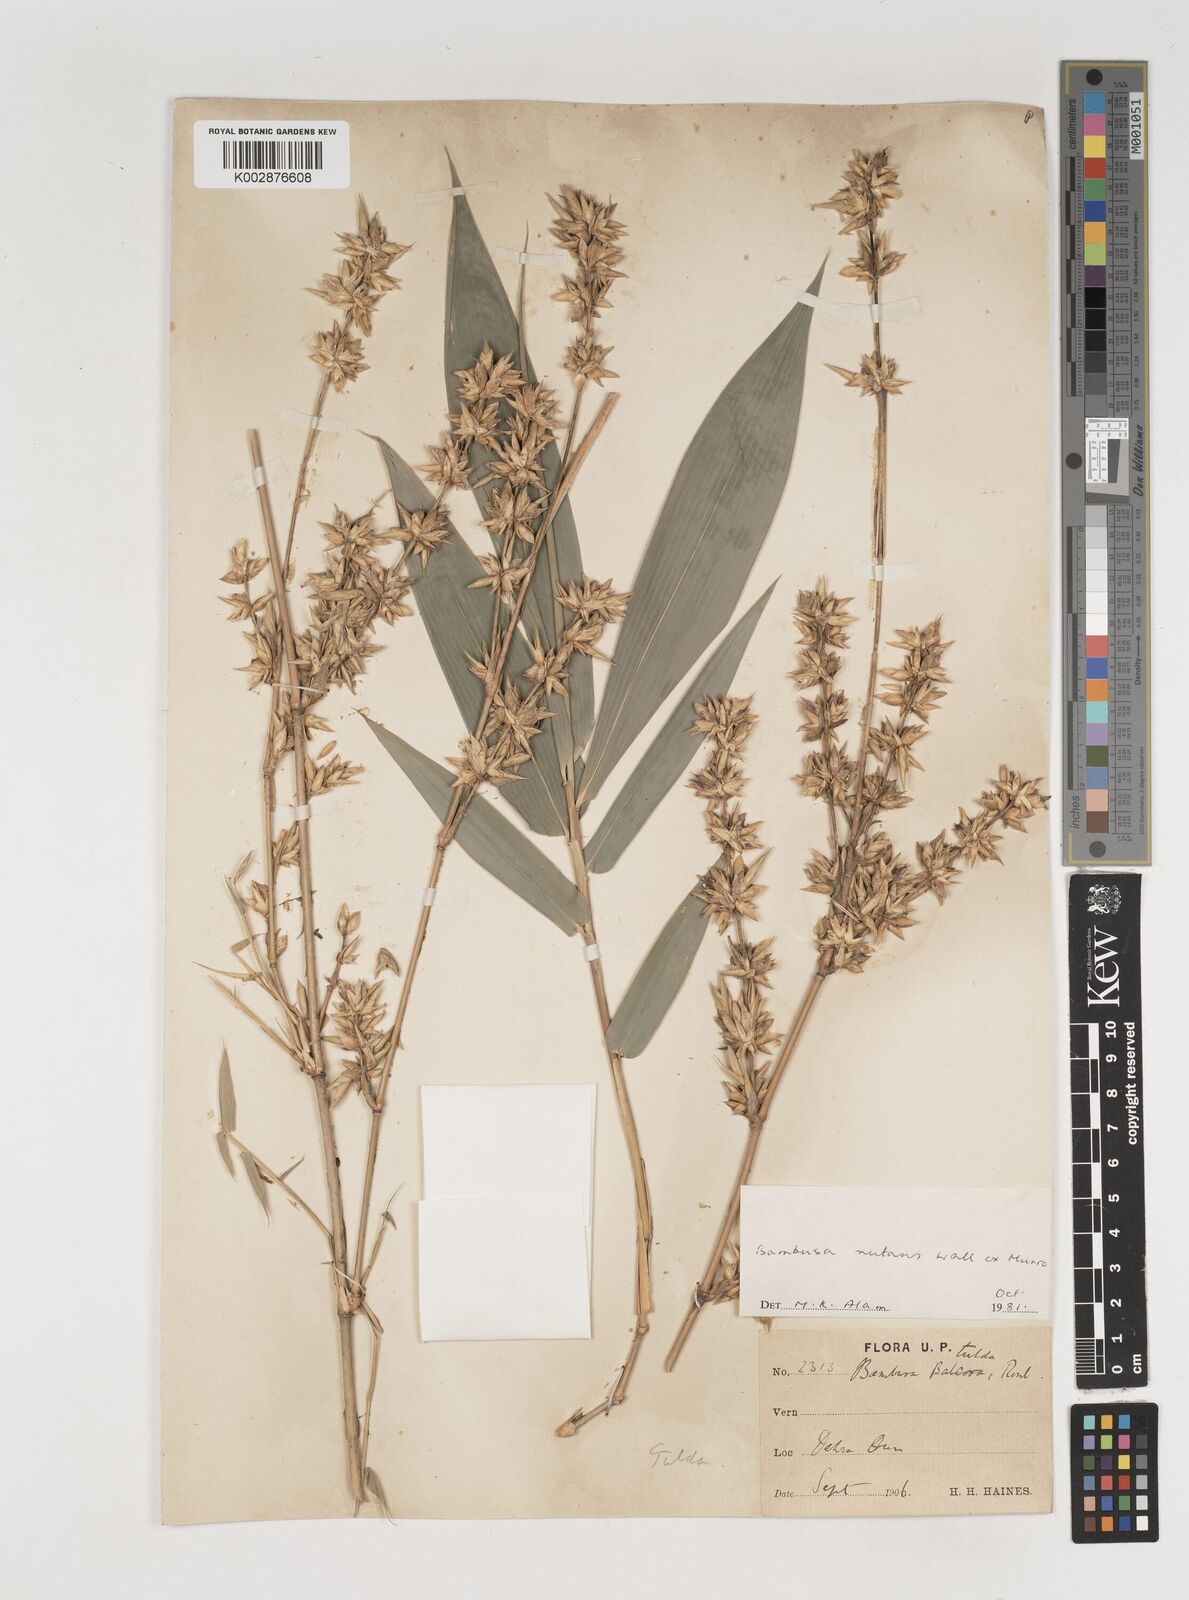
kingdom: Plantae
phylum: Tracheophyta
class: Liliopsida
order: Poales
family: Poaceae
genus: Bambusa
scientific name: Bambusa nutans
